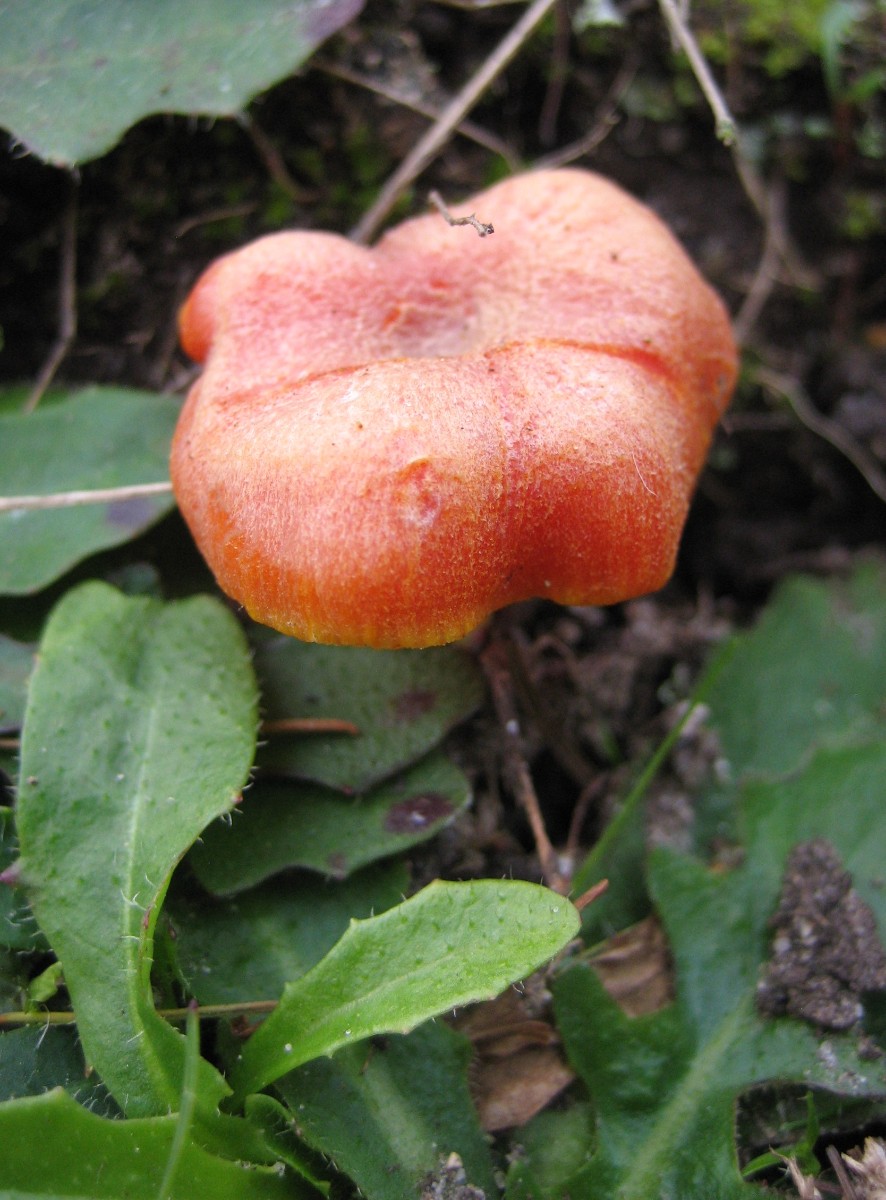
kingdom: Fungi
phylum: Basidiomycota
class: Agaricomycetes
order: Agaricales
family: Hygrophoraceae
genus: Hygrocybe
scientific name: Hygrocybe miniata
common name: mønje-vokshat
